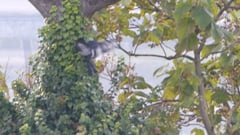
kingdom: Animalia
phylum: Chordata
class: Aves
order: Passeriformes
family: Corvidae
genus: Corvus
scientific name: Corvus corone
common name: Carrion crow
